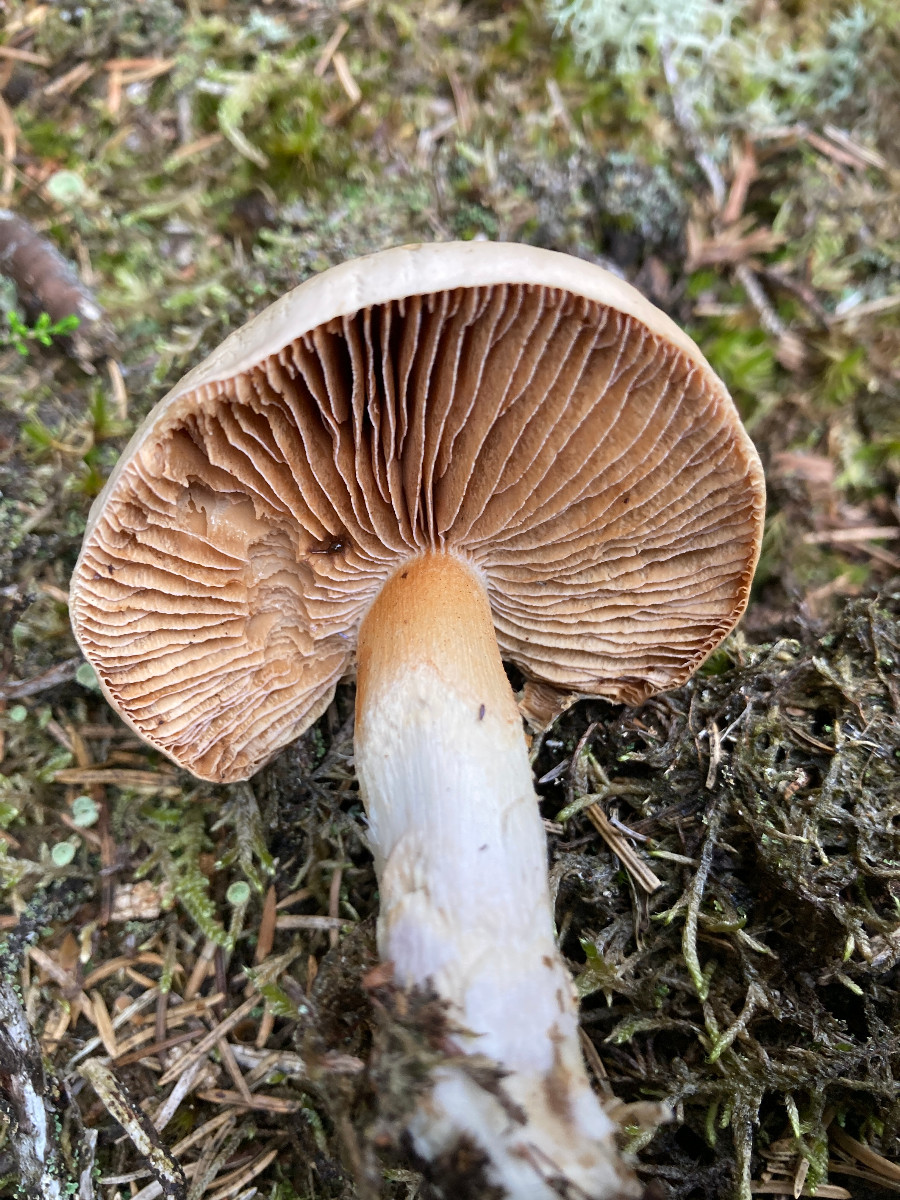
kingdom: Fungi
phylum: Basidiomycota
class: Agaricomycetes
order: Agaricales
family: Cortinariaceae
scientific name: Cortinariaceae
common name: slørhatfamilien
